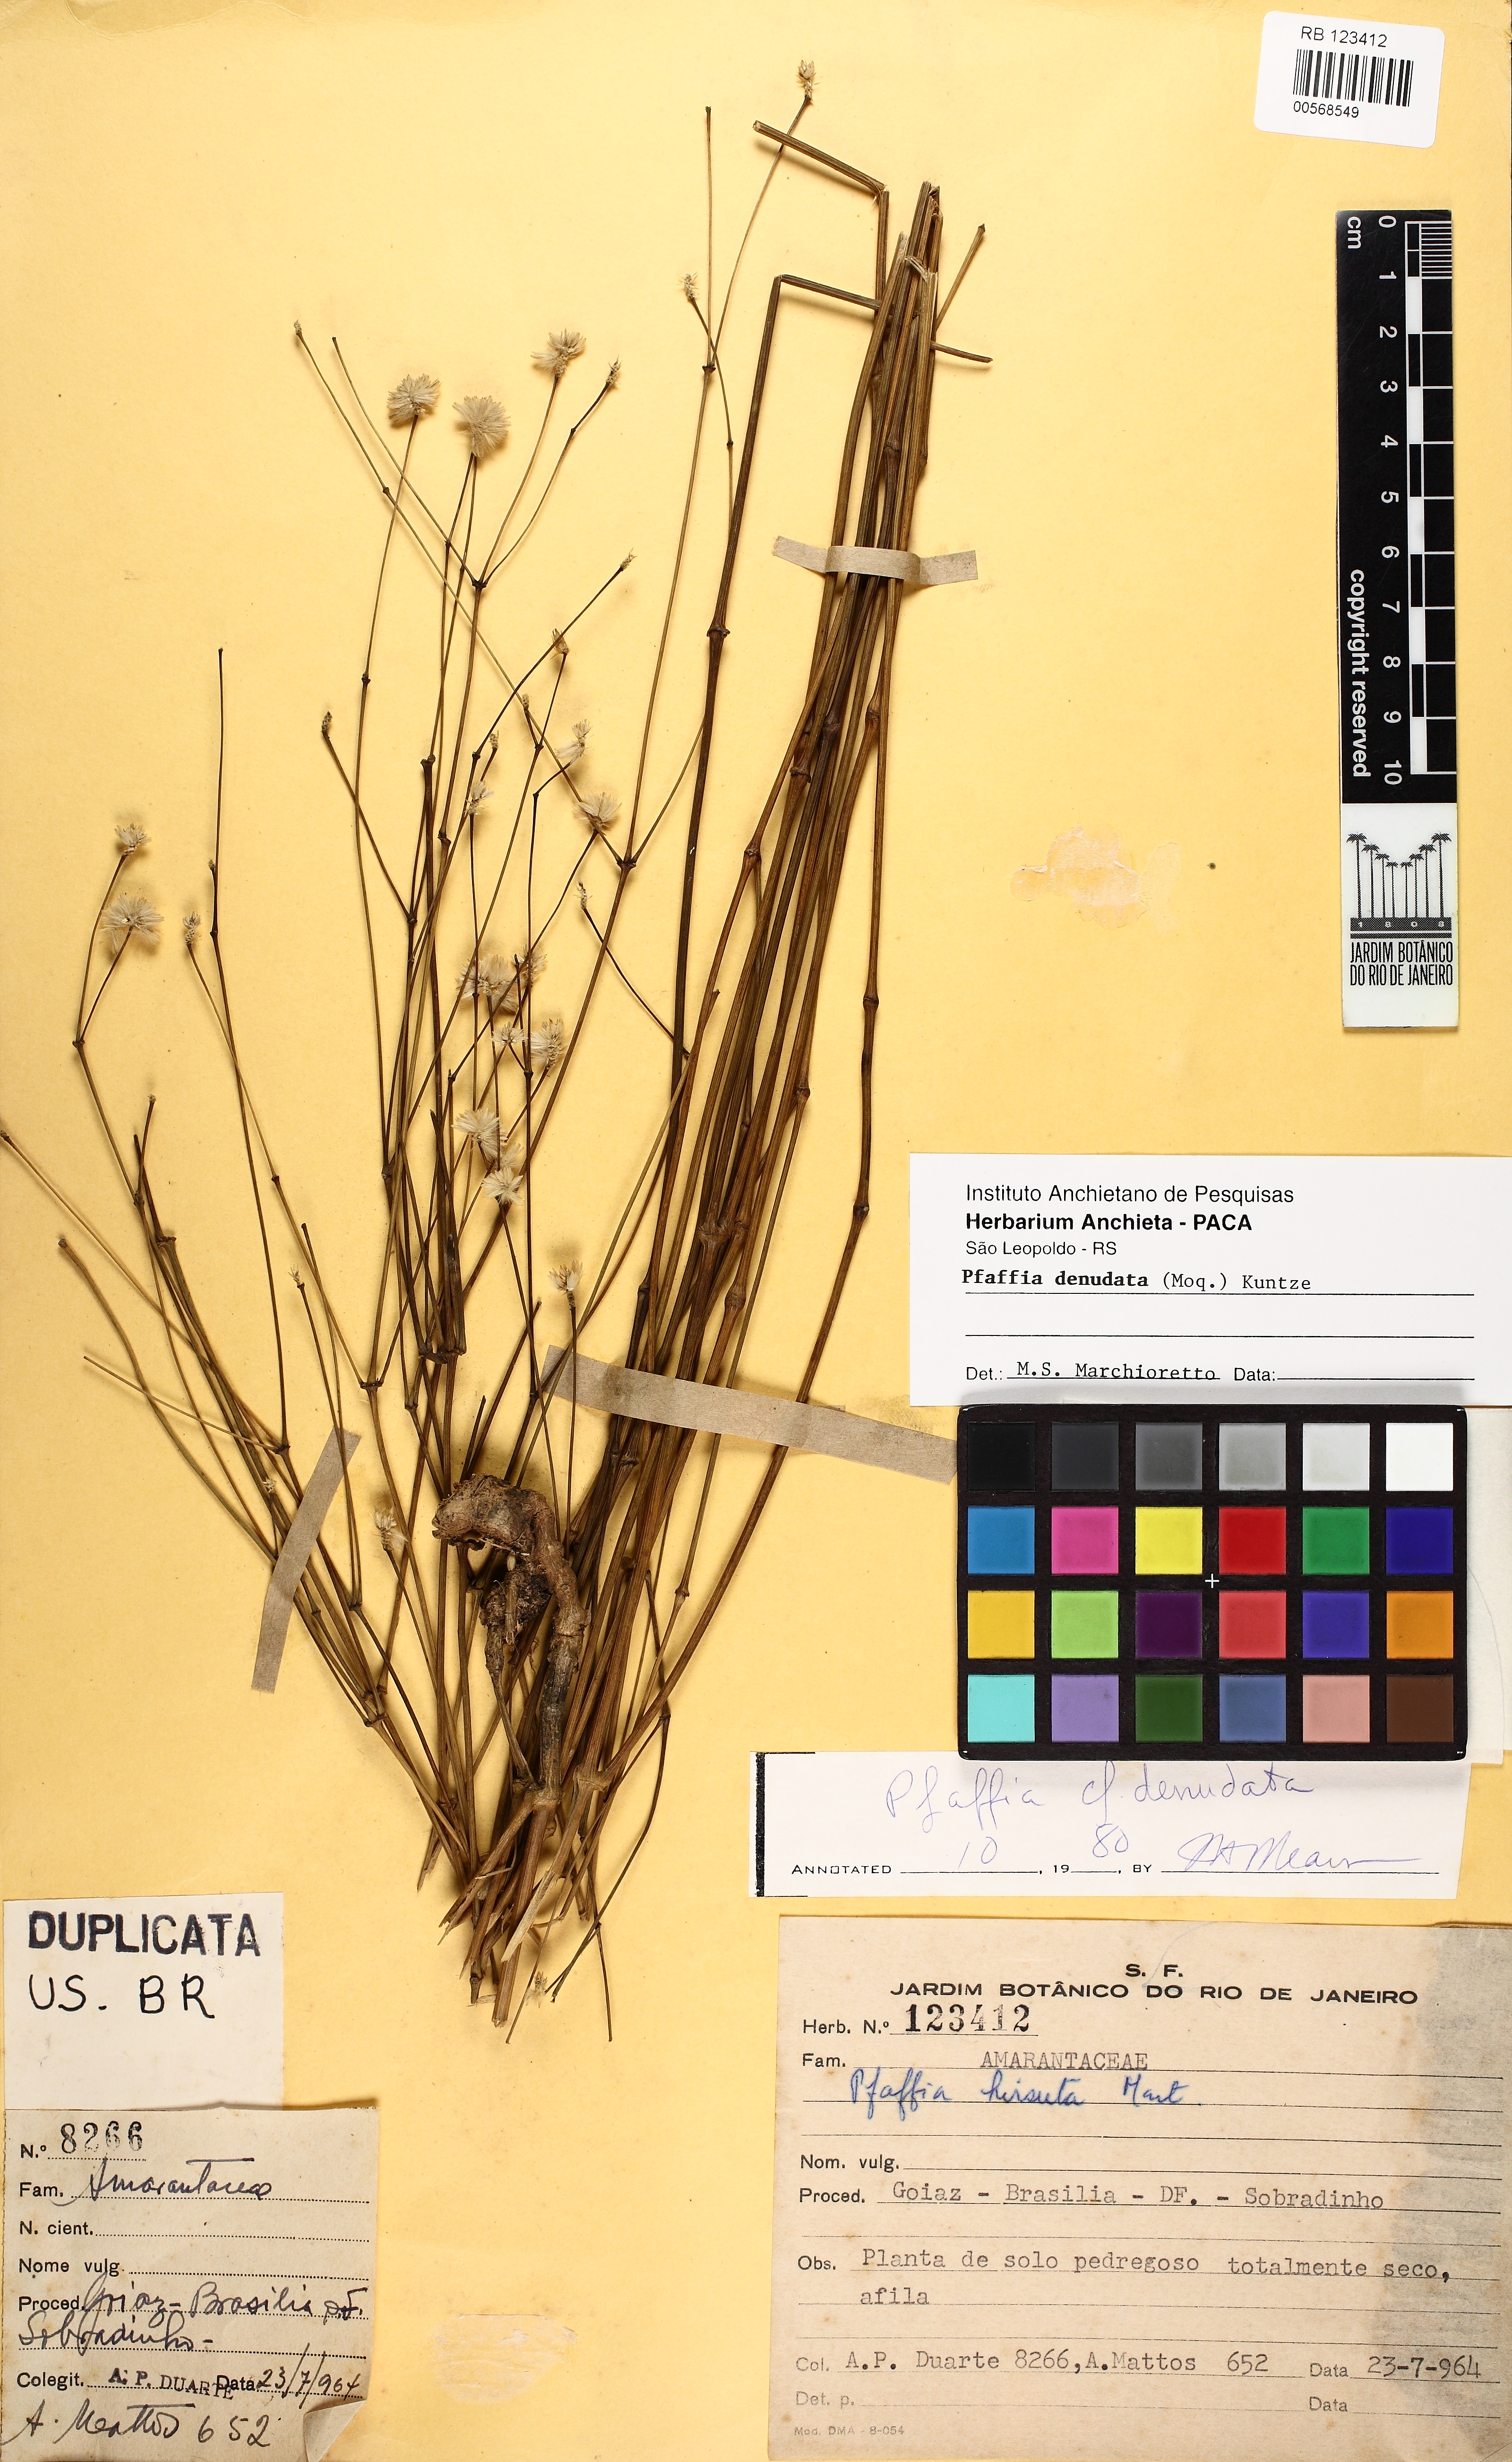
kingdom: Plantae
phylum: Tracheophyta
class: Magnoliopsida
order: Caryophyllales
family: Amaranthaceae
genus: Pfaffia
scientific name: Pfaffia denudata
